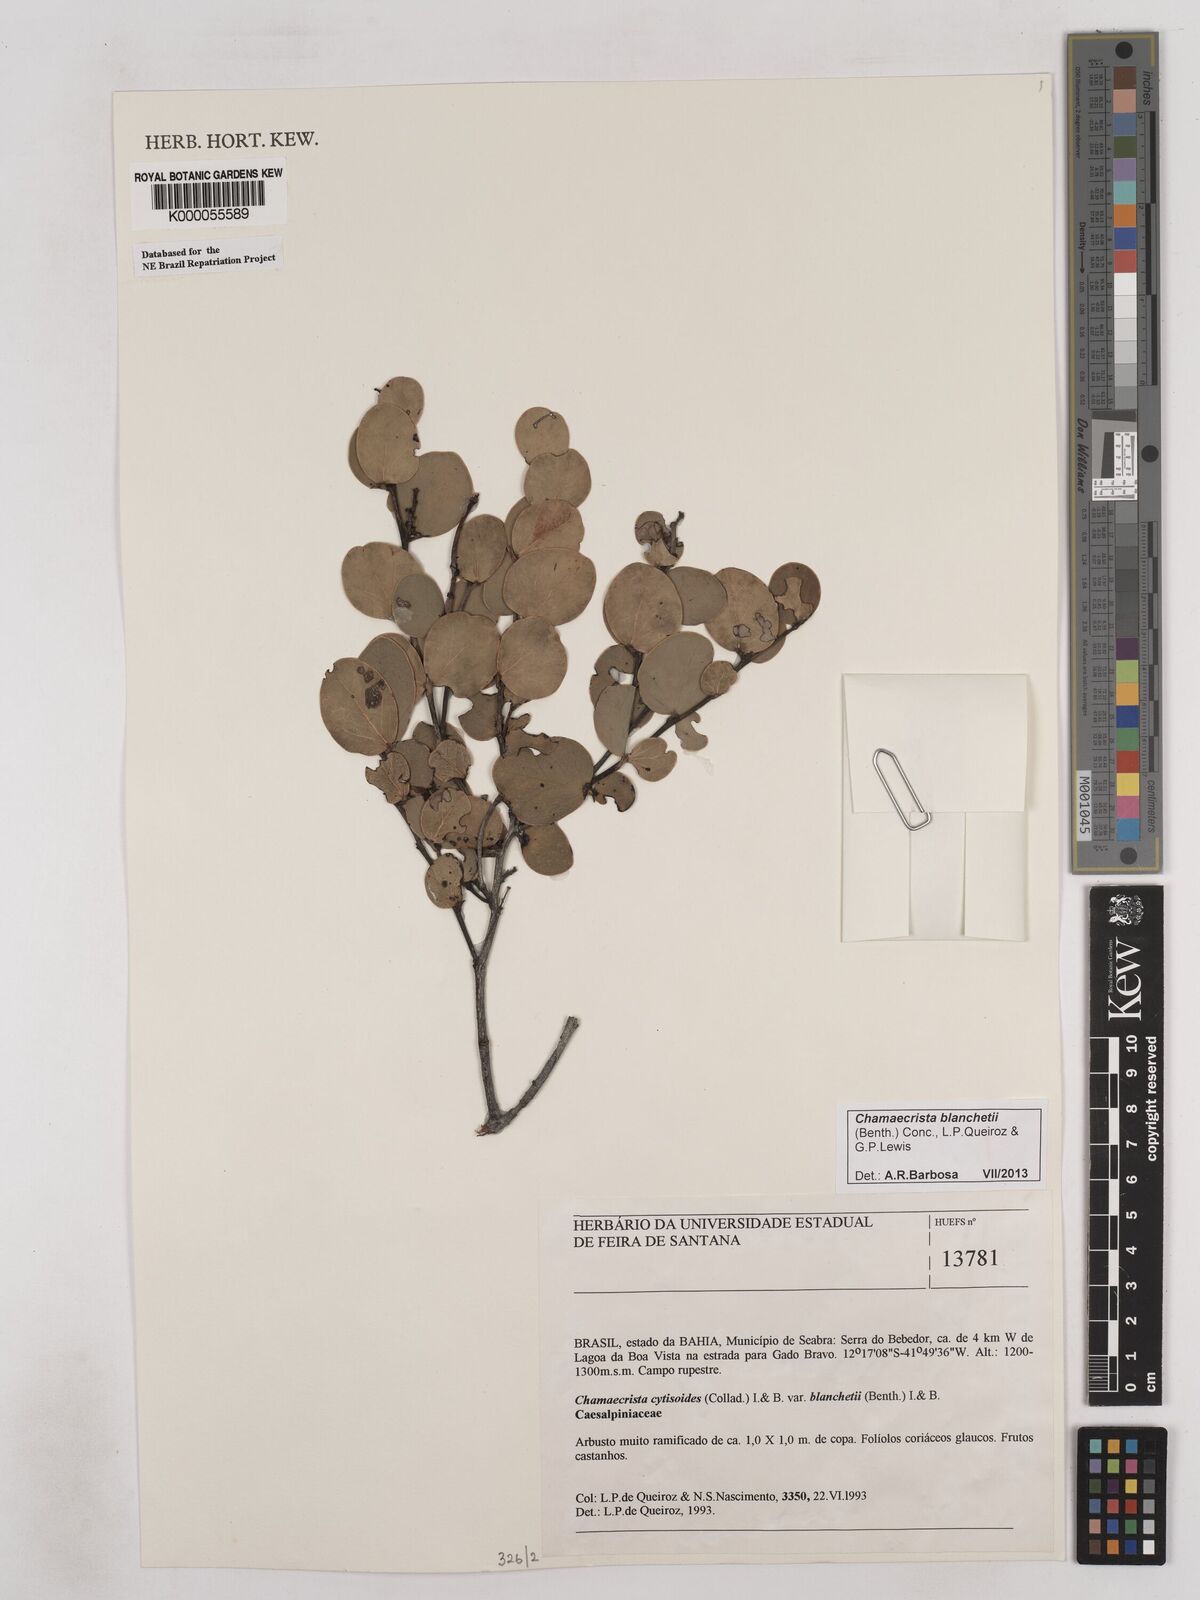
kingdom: Plantae
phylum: Tracheophyta
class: Magnoliopsida
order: Fabales
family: Fabaceae
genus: Chamaecrista
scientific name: Chamaecrista cytisoides
